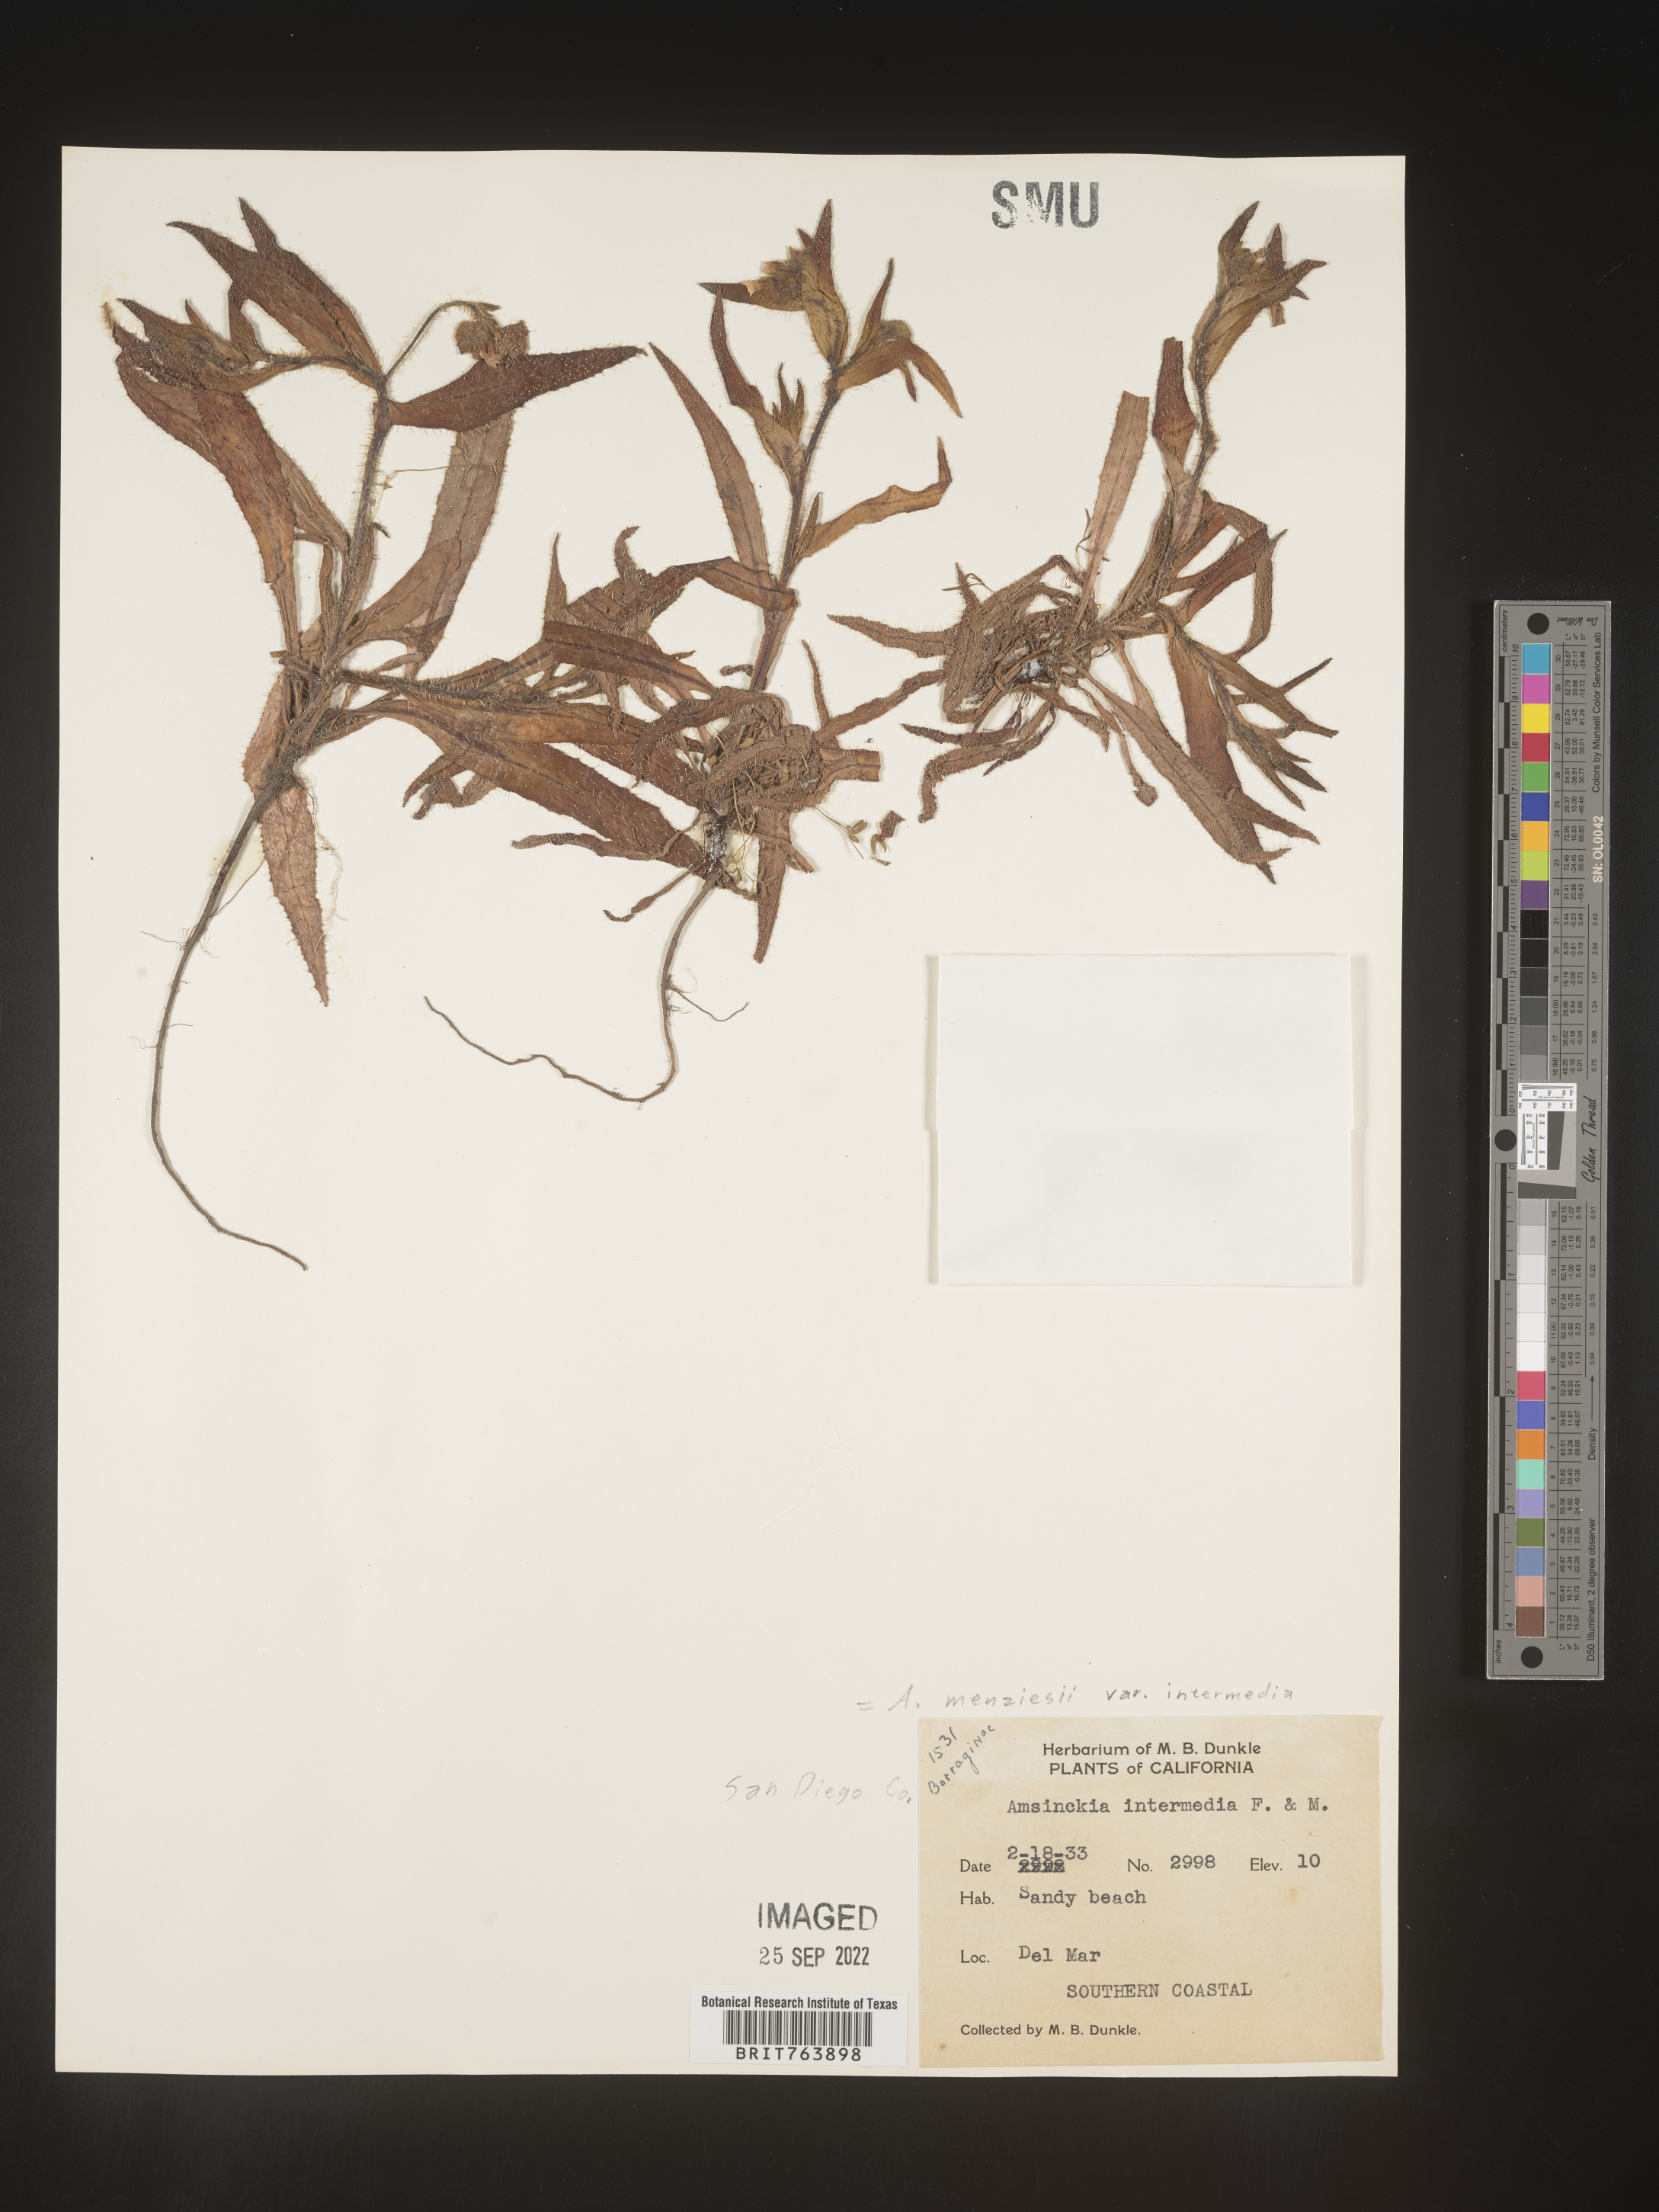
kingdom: Plantae
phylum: Tracheophyta
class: Magnoliopsida
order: Boraginales
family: Boraginaceae
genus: Amsinckia
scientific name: Amsinckia menziesii
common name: Menzies' fiddleneck
